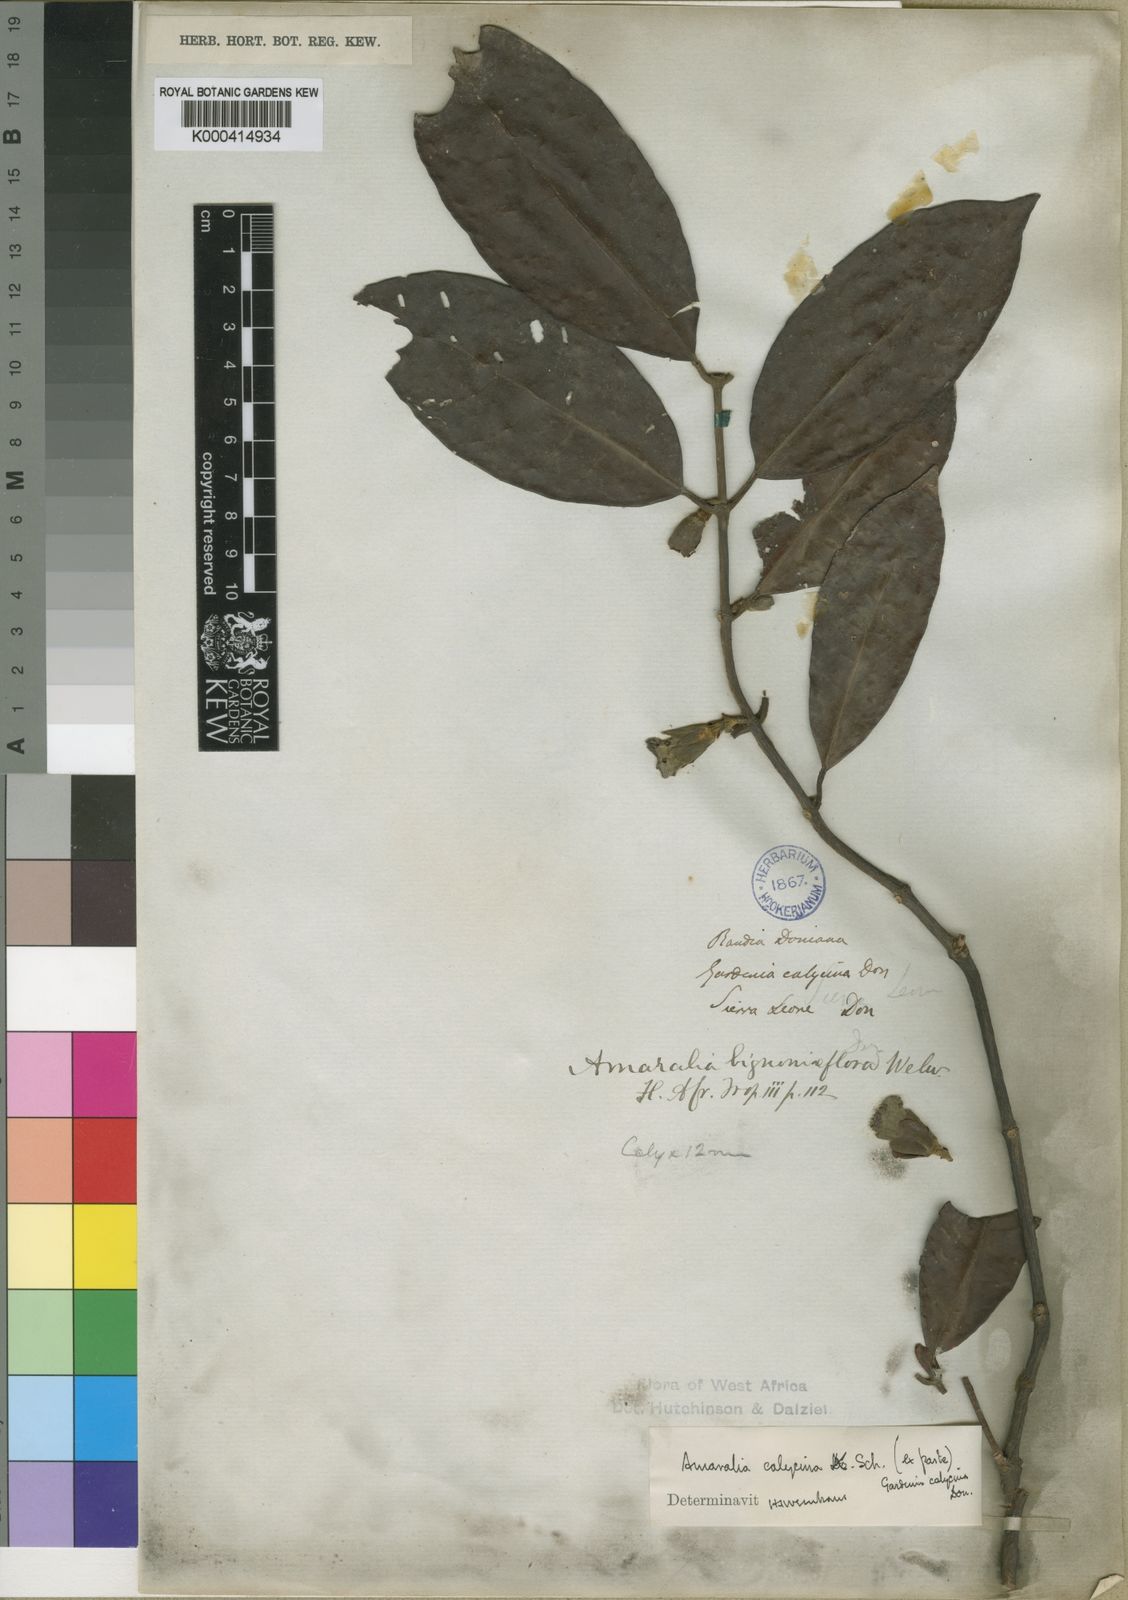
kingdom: Plantae
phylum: Tracheophyta
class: Magnoliopsida
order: Gentianales
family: Rubiaceae
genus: Sherbournia
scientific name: Sherbournia
